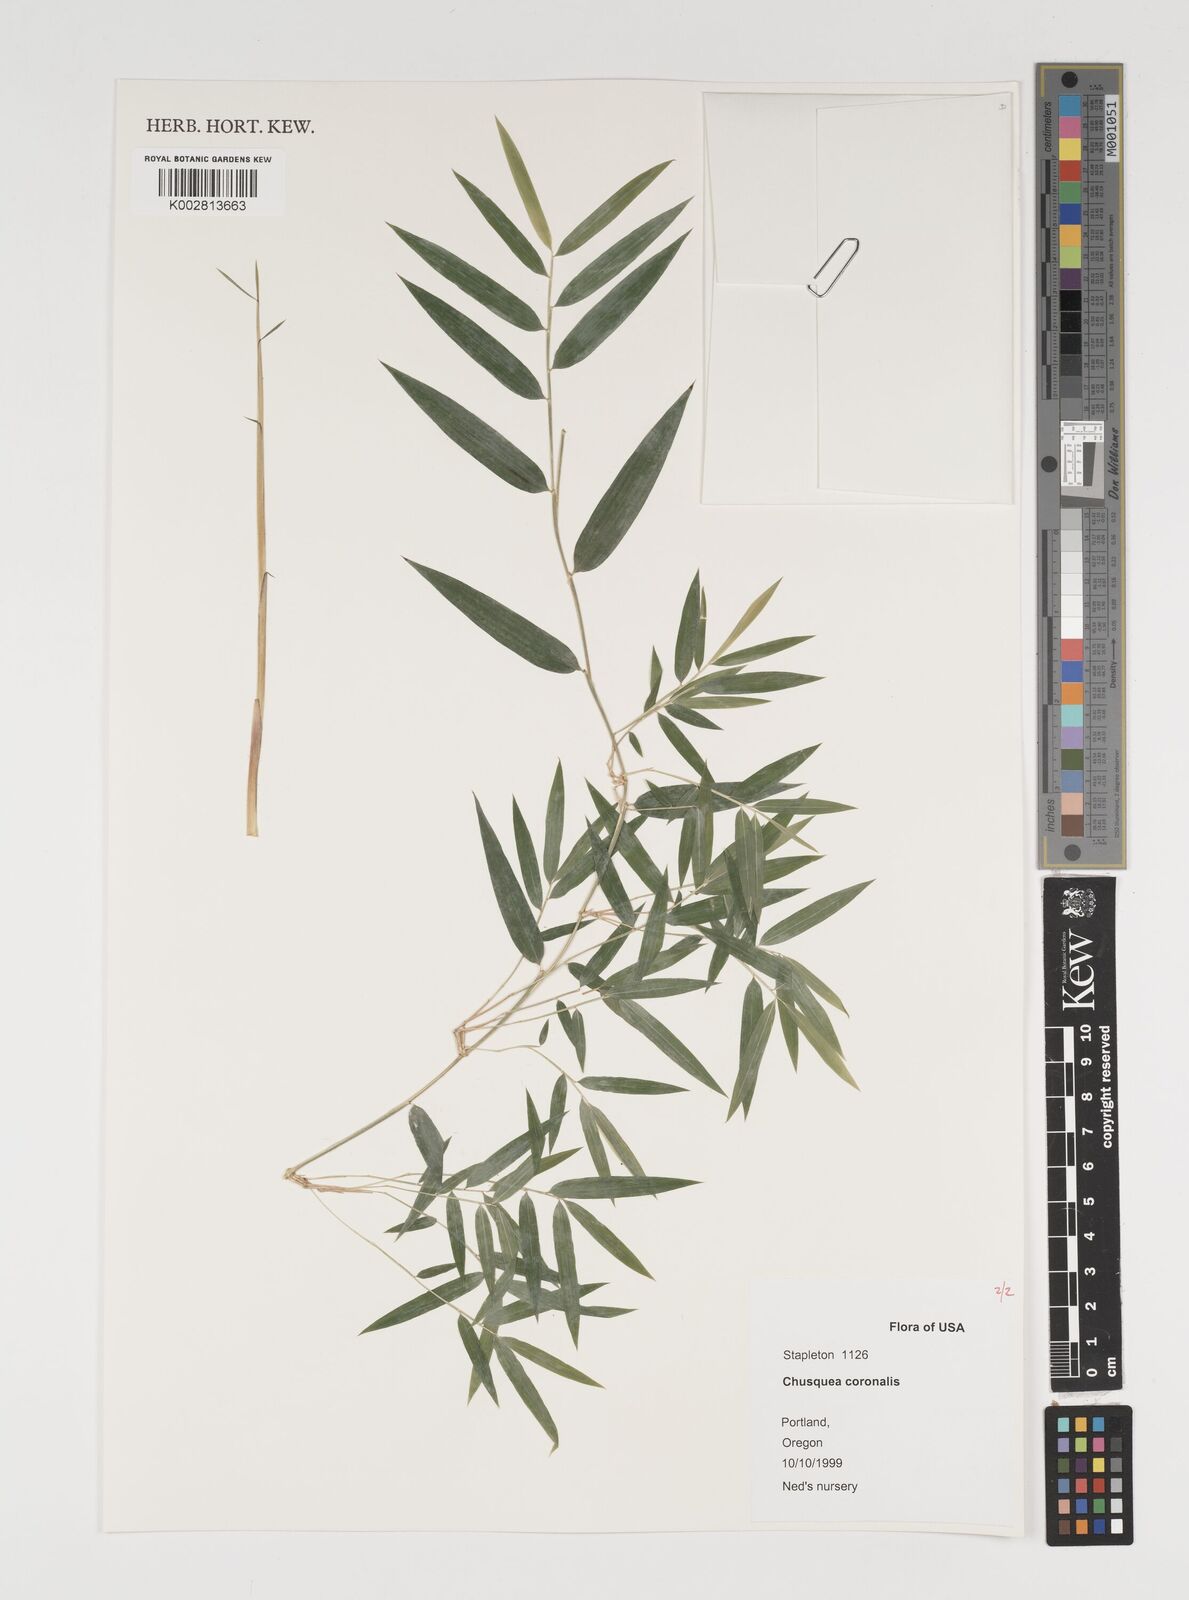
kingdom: Plantae
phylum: Tracheophyta
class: Liliopsida
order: Poales
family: Poaceae
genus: Chusquea
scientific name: Chusquea coronalis
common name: Machris bamboo
